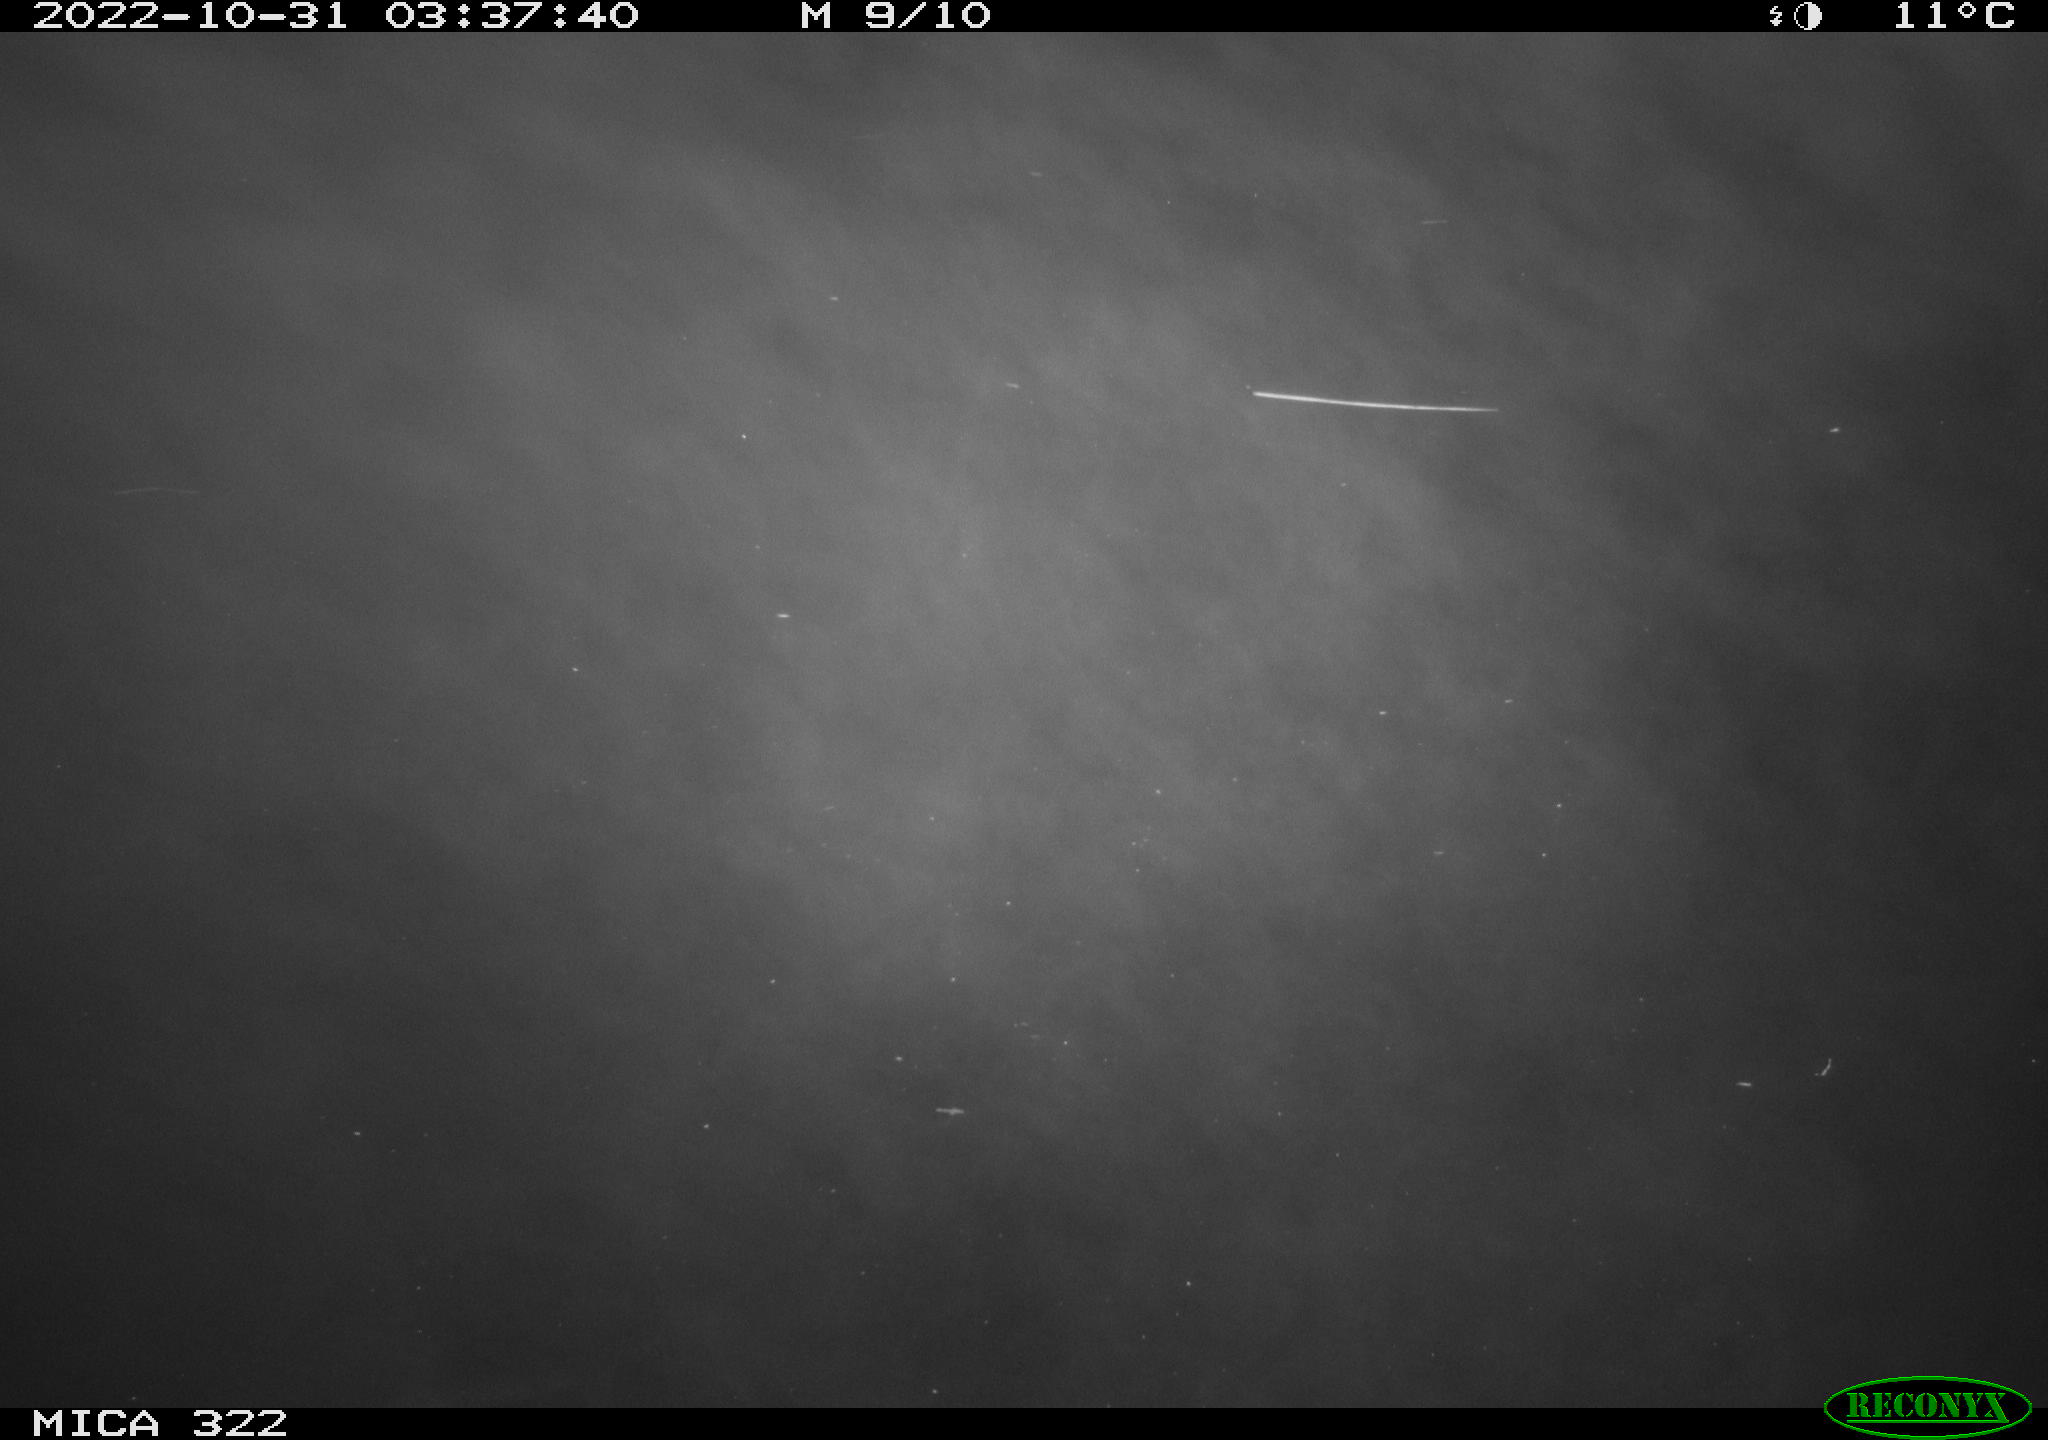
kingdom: Animalia
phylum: Chordata
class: Mammalia
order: Rodentia
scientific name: Rodentia
